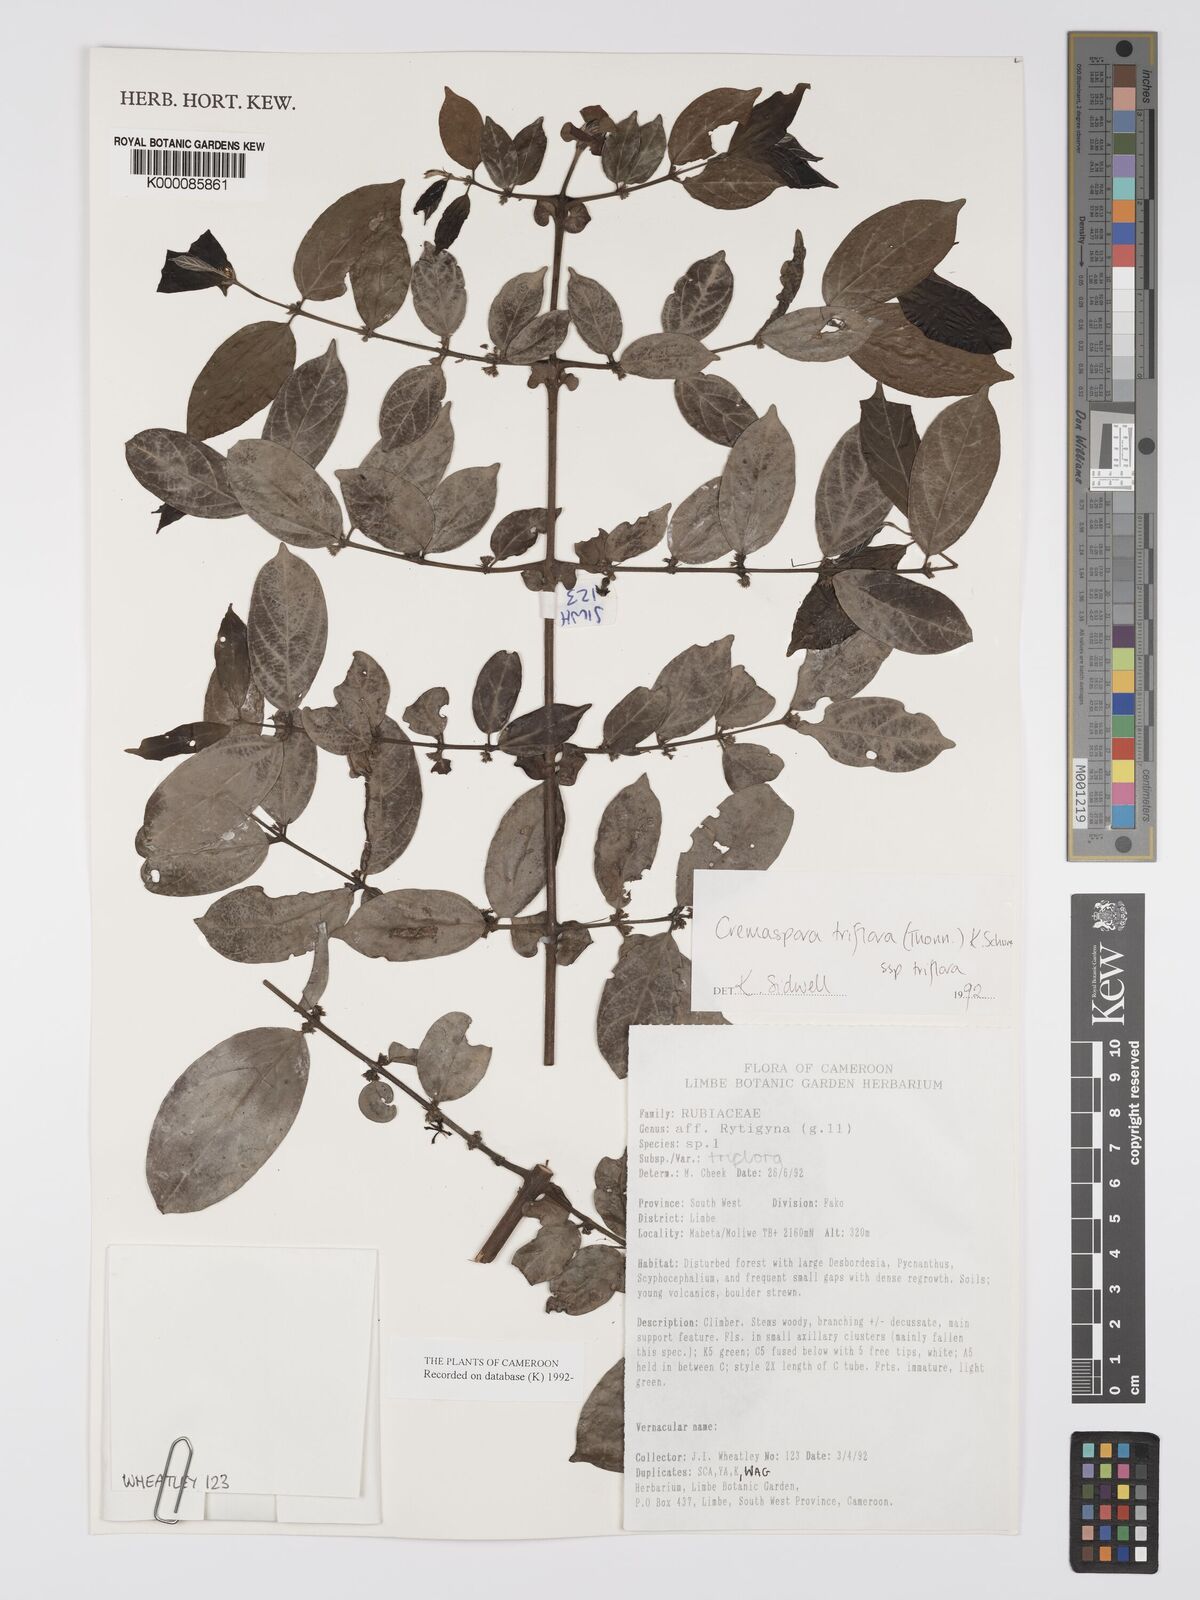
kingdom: Plantae
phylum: Tracheophyta
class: Magnoliopsida
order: Gentianales
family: Rubiaceae
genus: Cremaspora
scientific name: Cremaspora triflora
